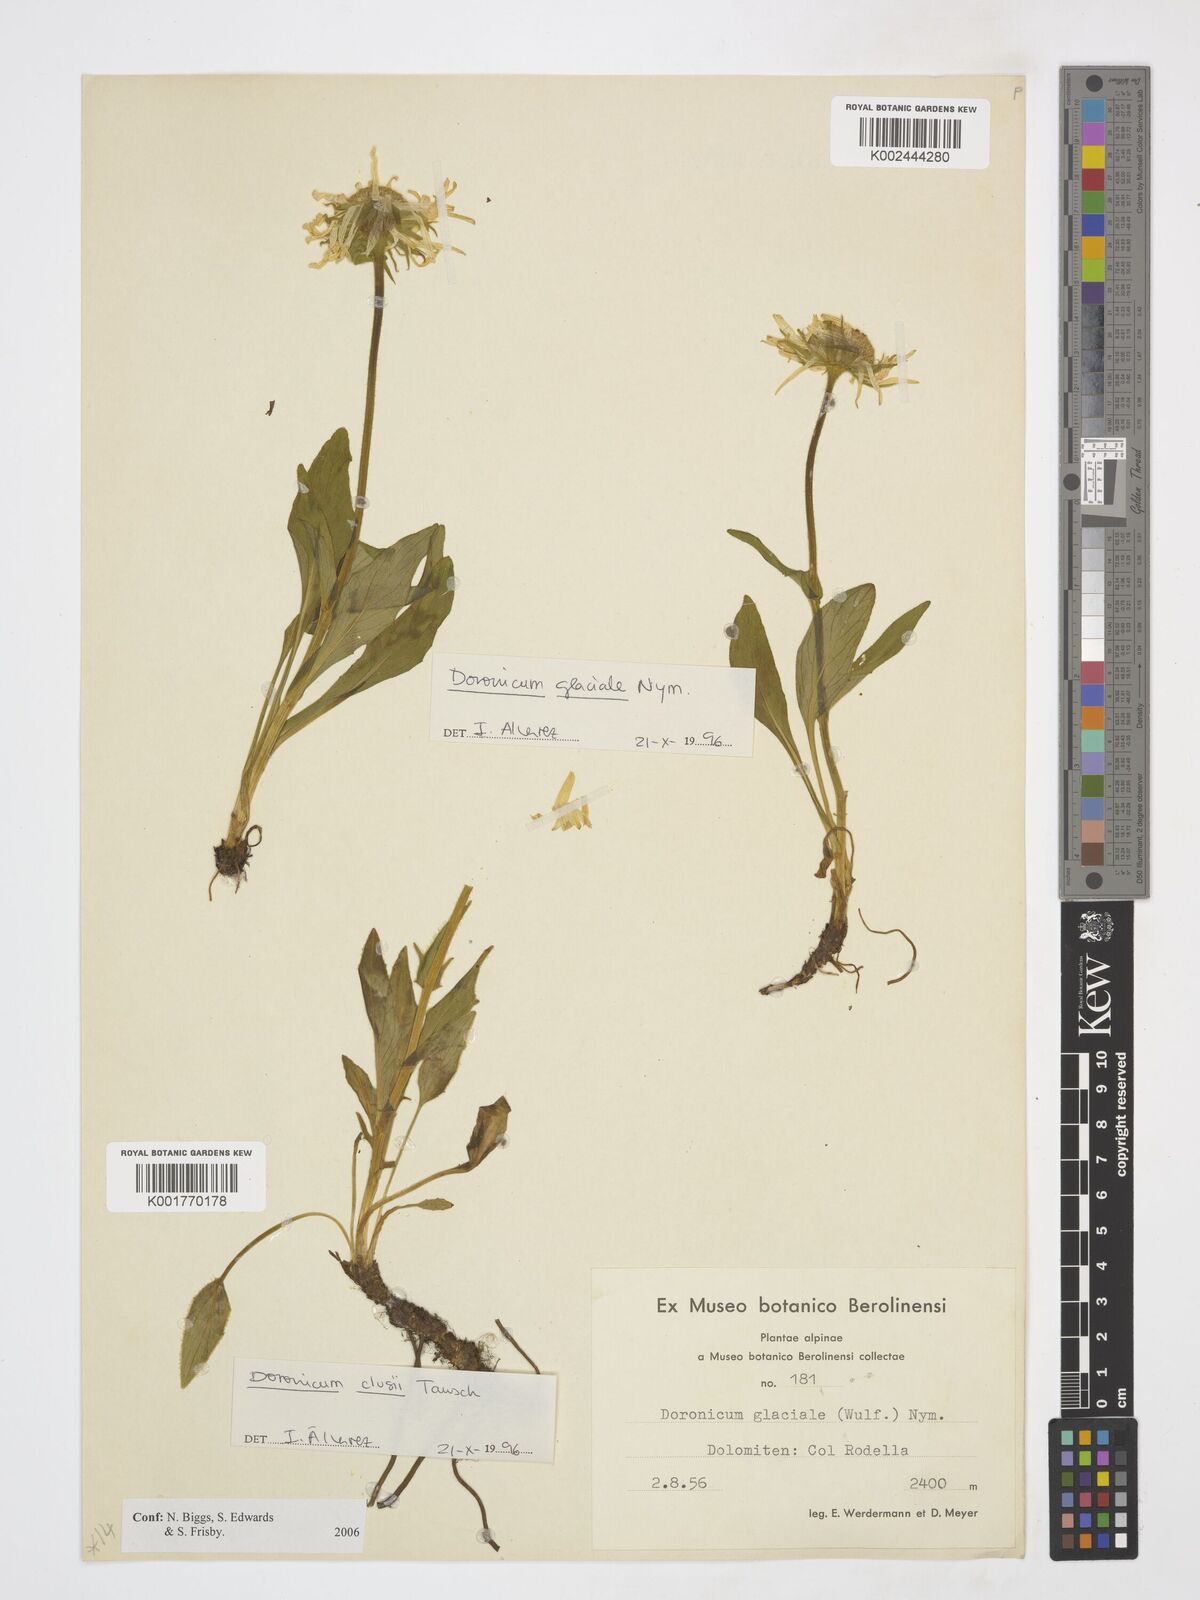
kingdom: Plantae
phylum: Tracheophyta
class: Magnoliopsida
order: Asterales
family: Asteraceae
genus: Doronicum
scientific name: Doronicum clusii
